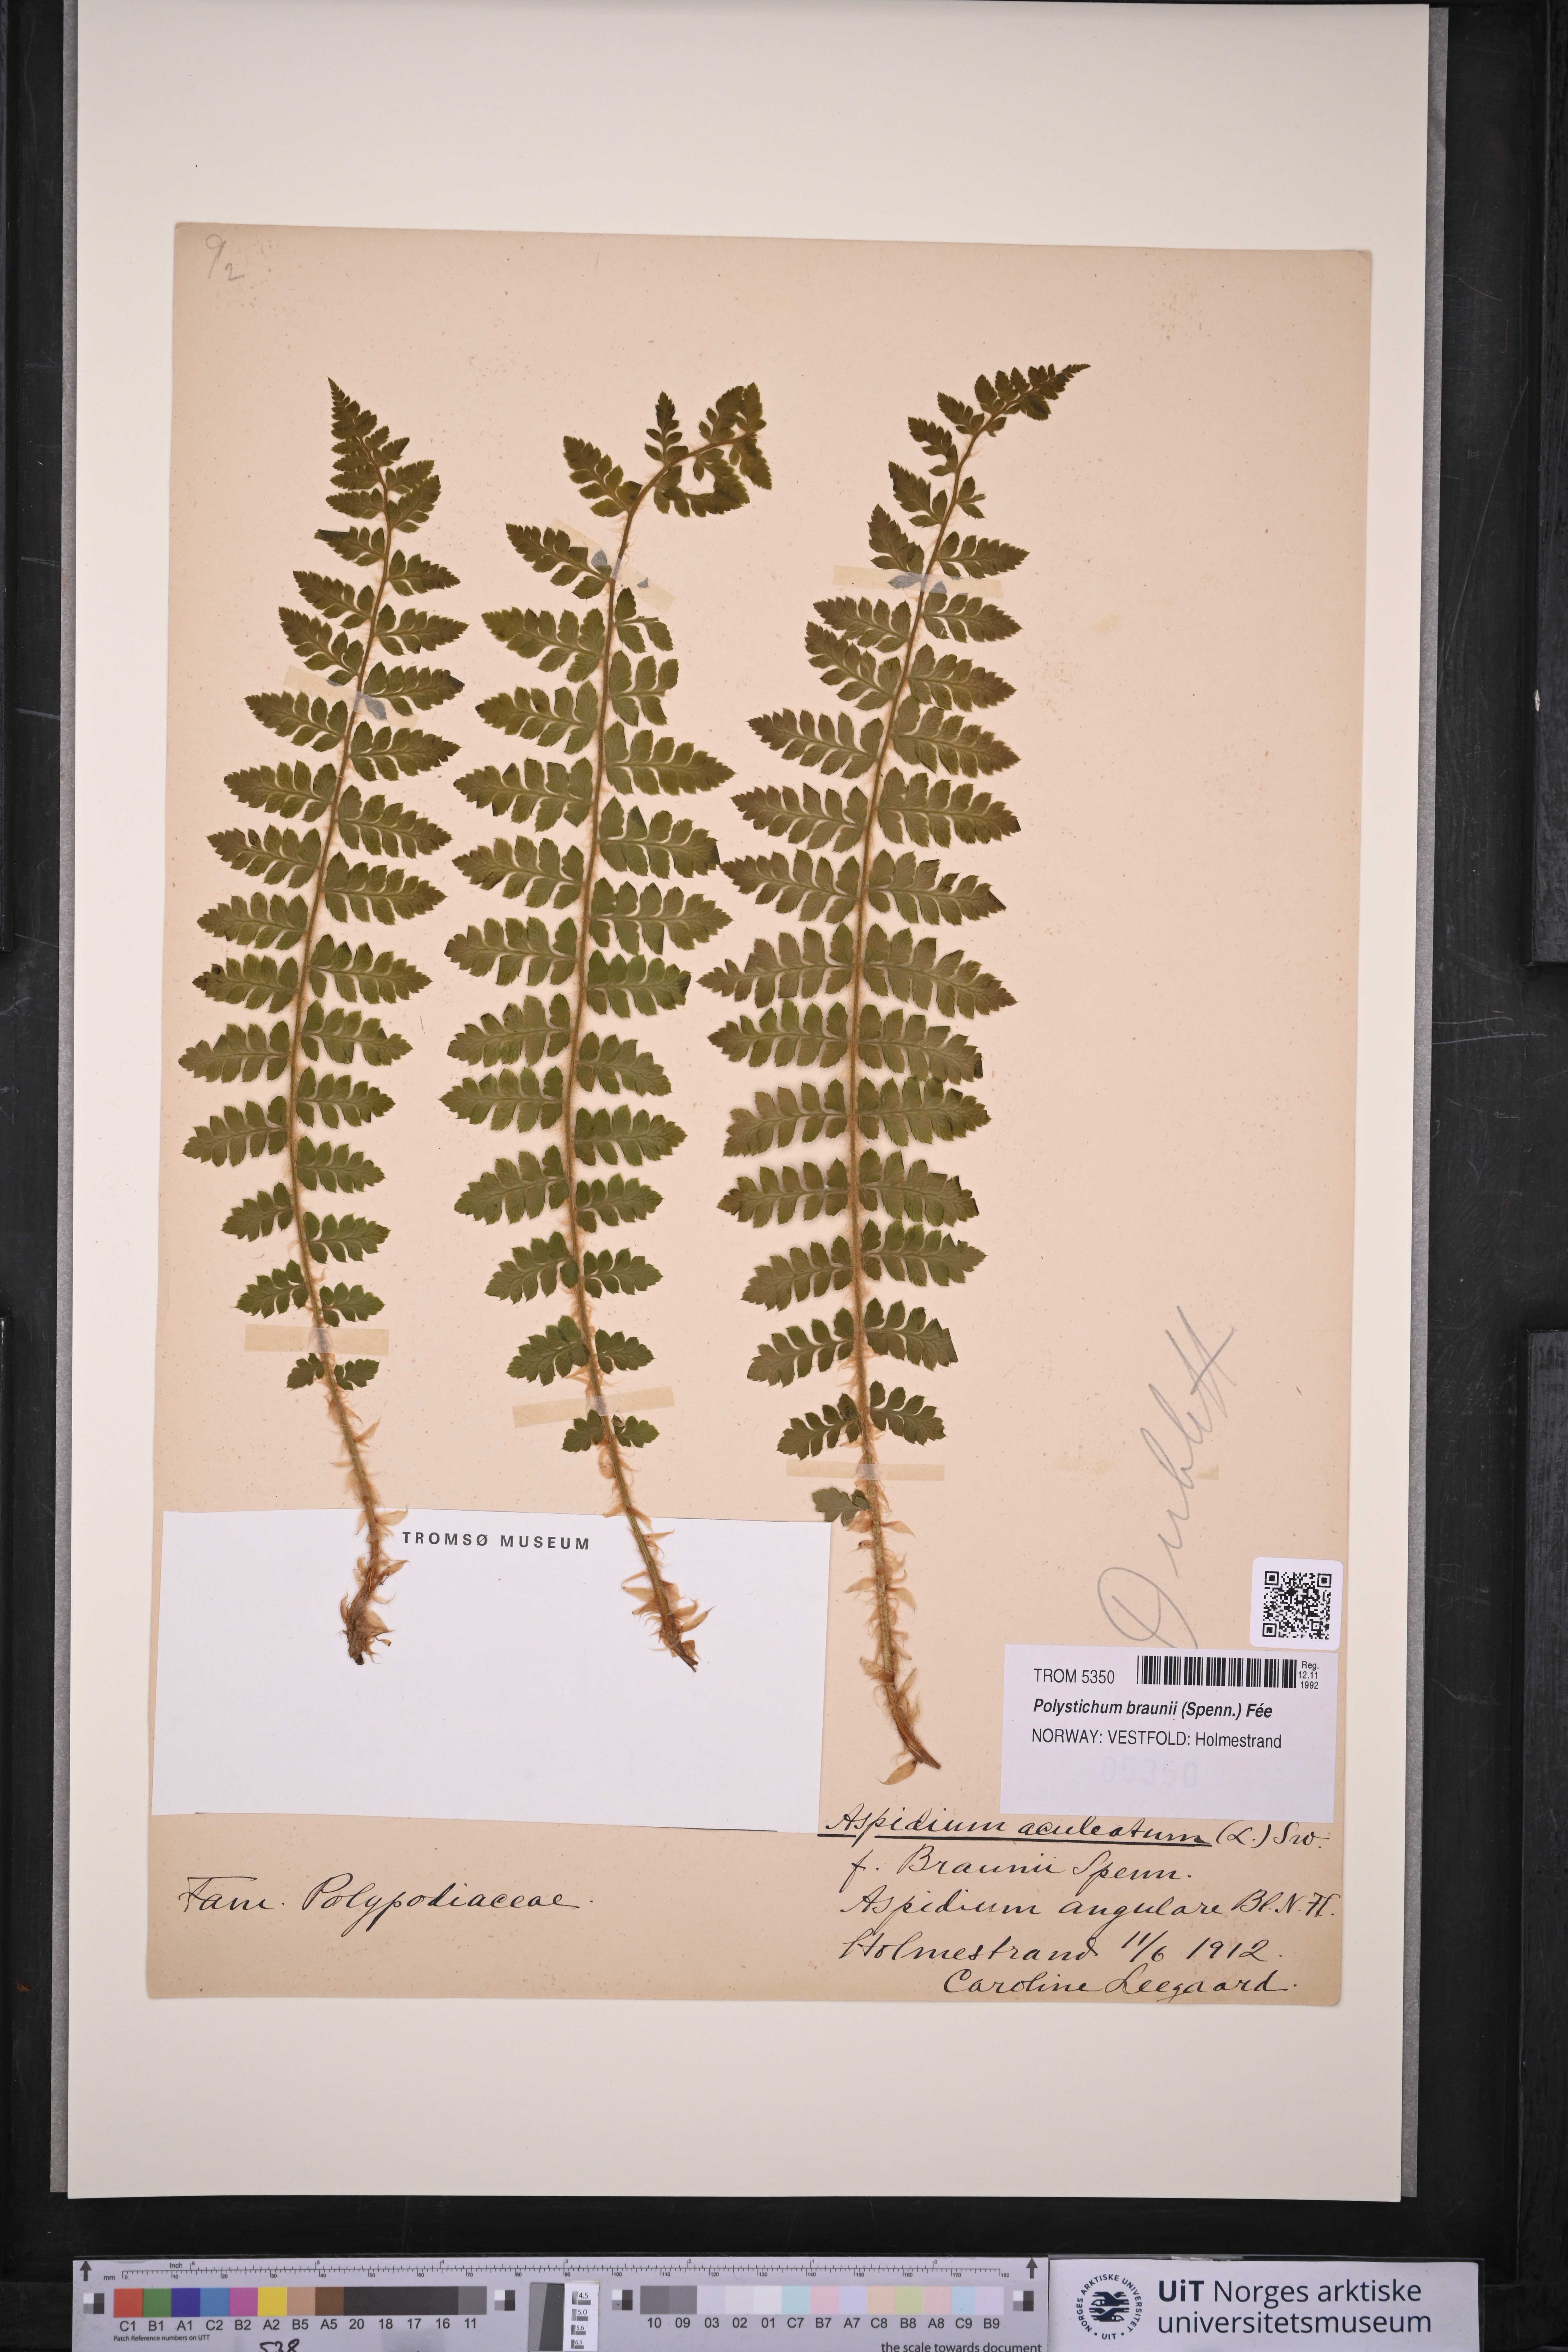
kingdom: Plantae
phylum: Tracheophyta
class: Polypodiopsida
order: Polypodiales
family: Dryopteridaceae
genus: Polystichum
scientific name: Polystichum braunii
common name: Braun's holly fern
